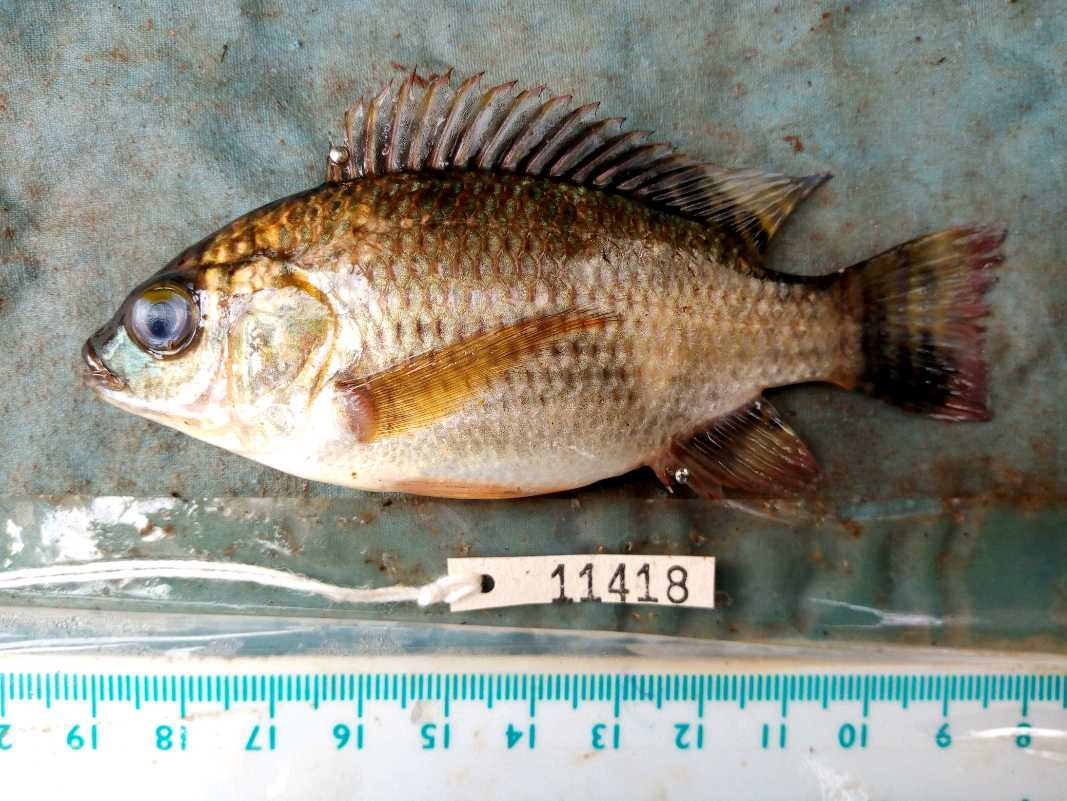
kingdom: Animalia
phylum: Chordata
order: Perciformes
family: Cichlidae
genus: Oreochromis
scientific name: Oreochromis niloticus
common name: Nile tilapia
